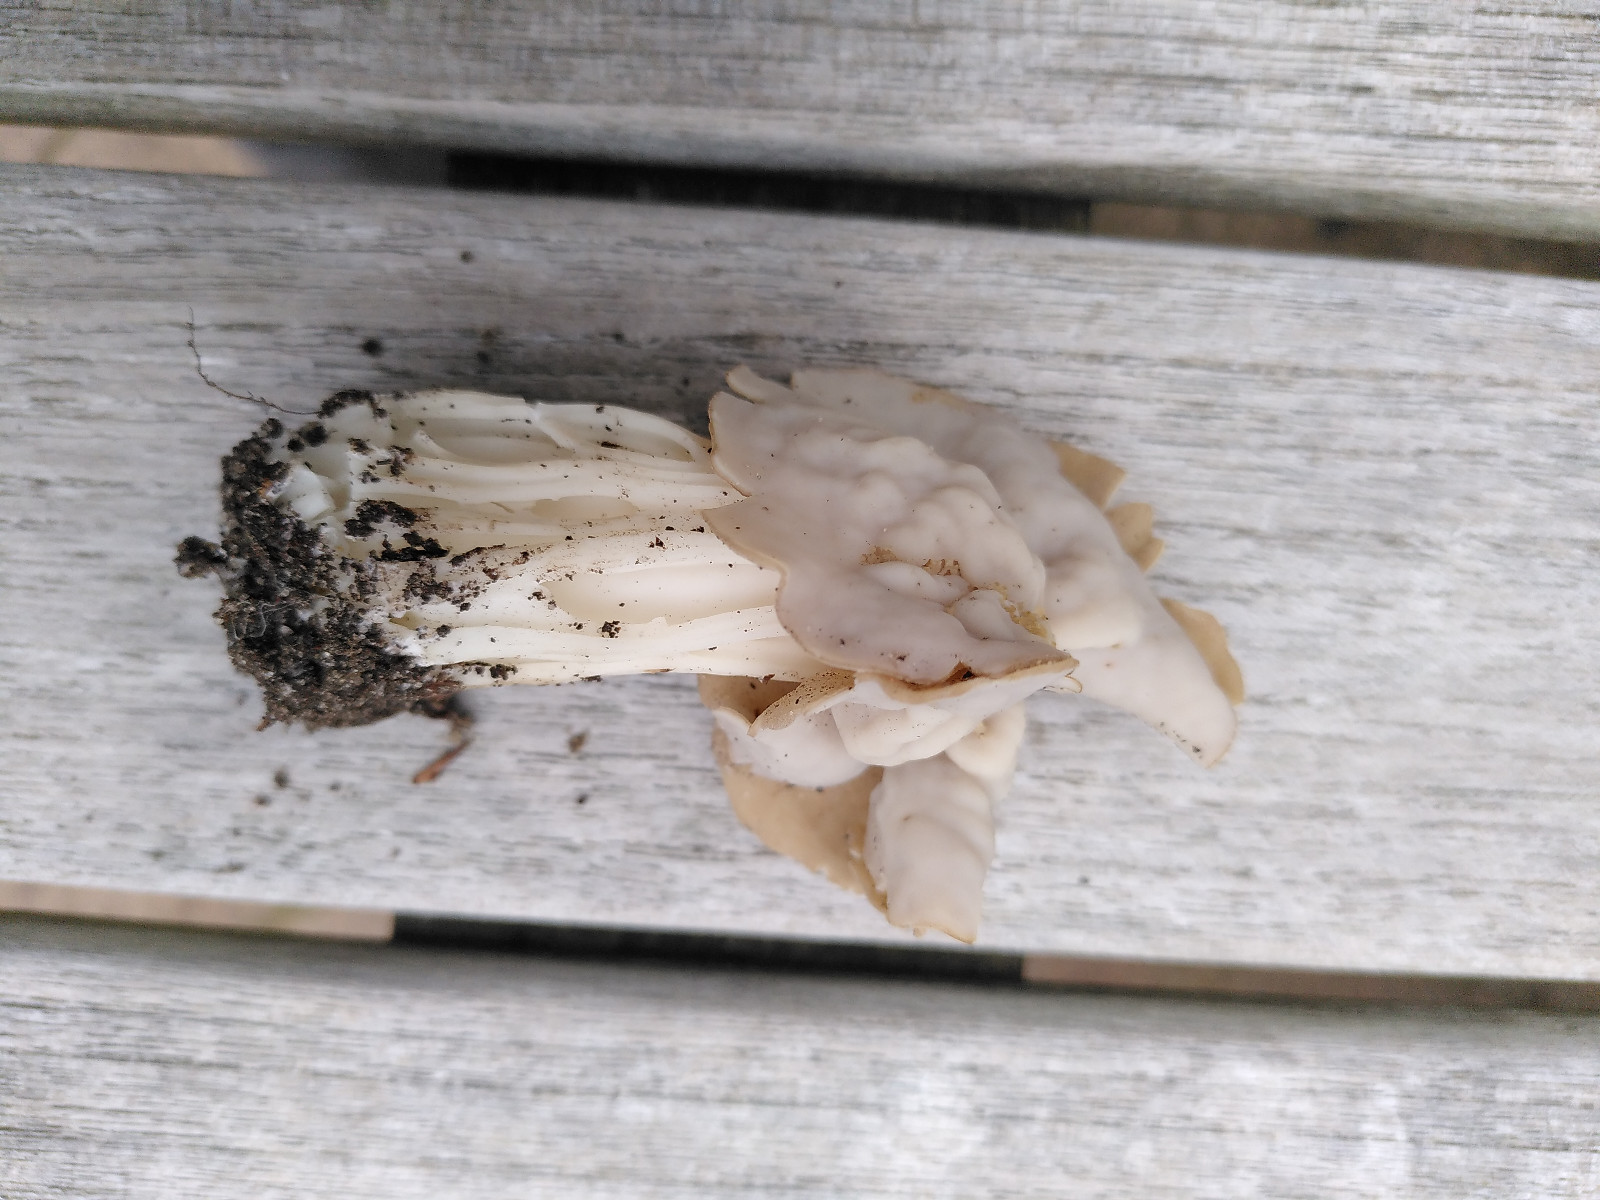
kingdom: Fungi
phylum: Ascomycota
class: Pezizomycetes
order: Pezizales
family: Helvellaceae
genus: Helvella
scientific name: Helvella crispa
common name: kruset foldhat
